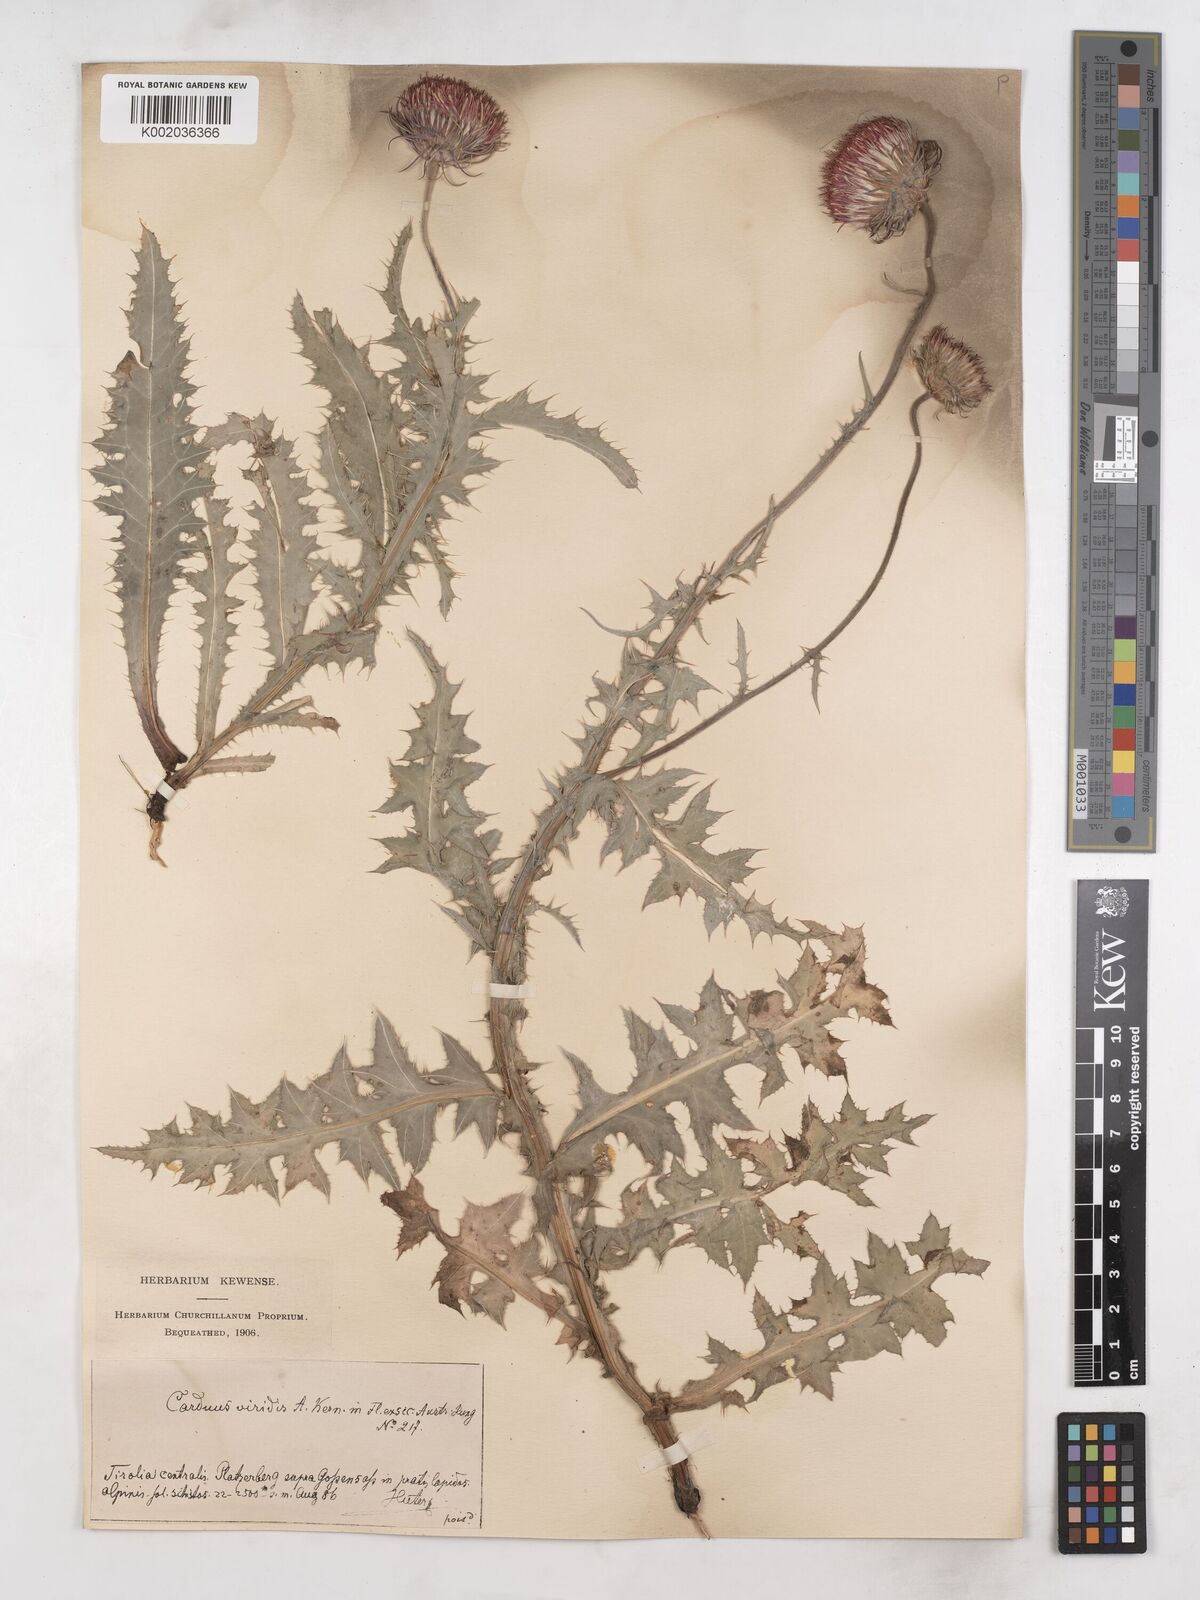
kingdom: Plantae
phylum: Tracheophyta
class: Magnoliopsida
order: Asterales
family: Asteraceae
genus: Carduus
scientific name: Carduus defloratus
